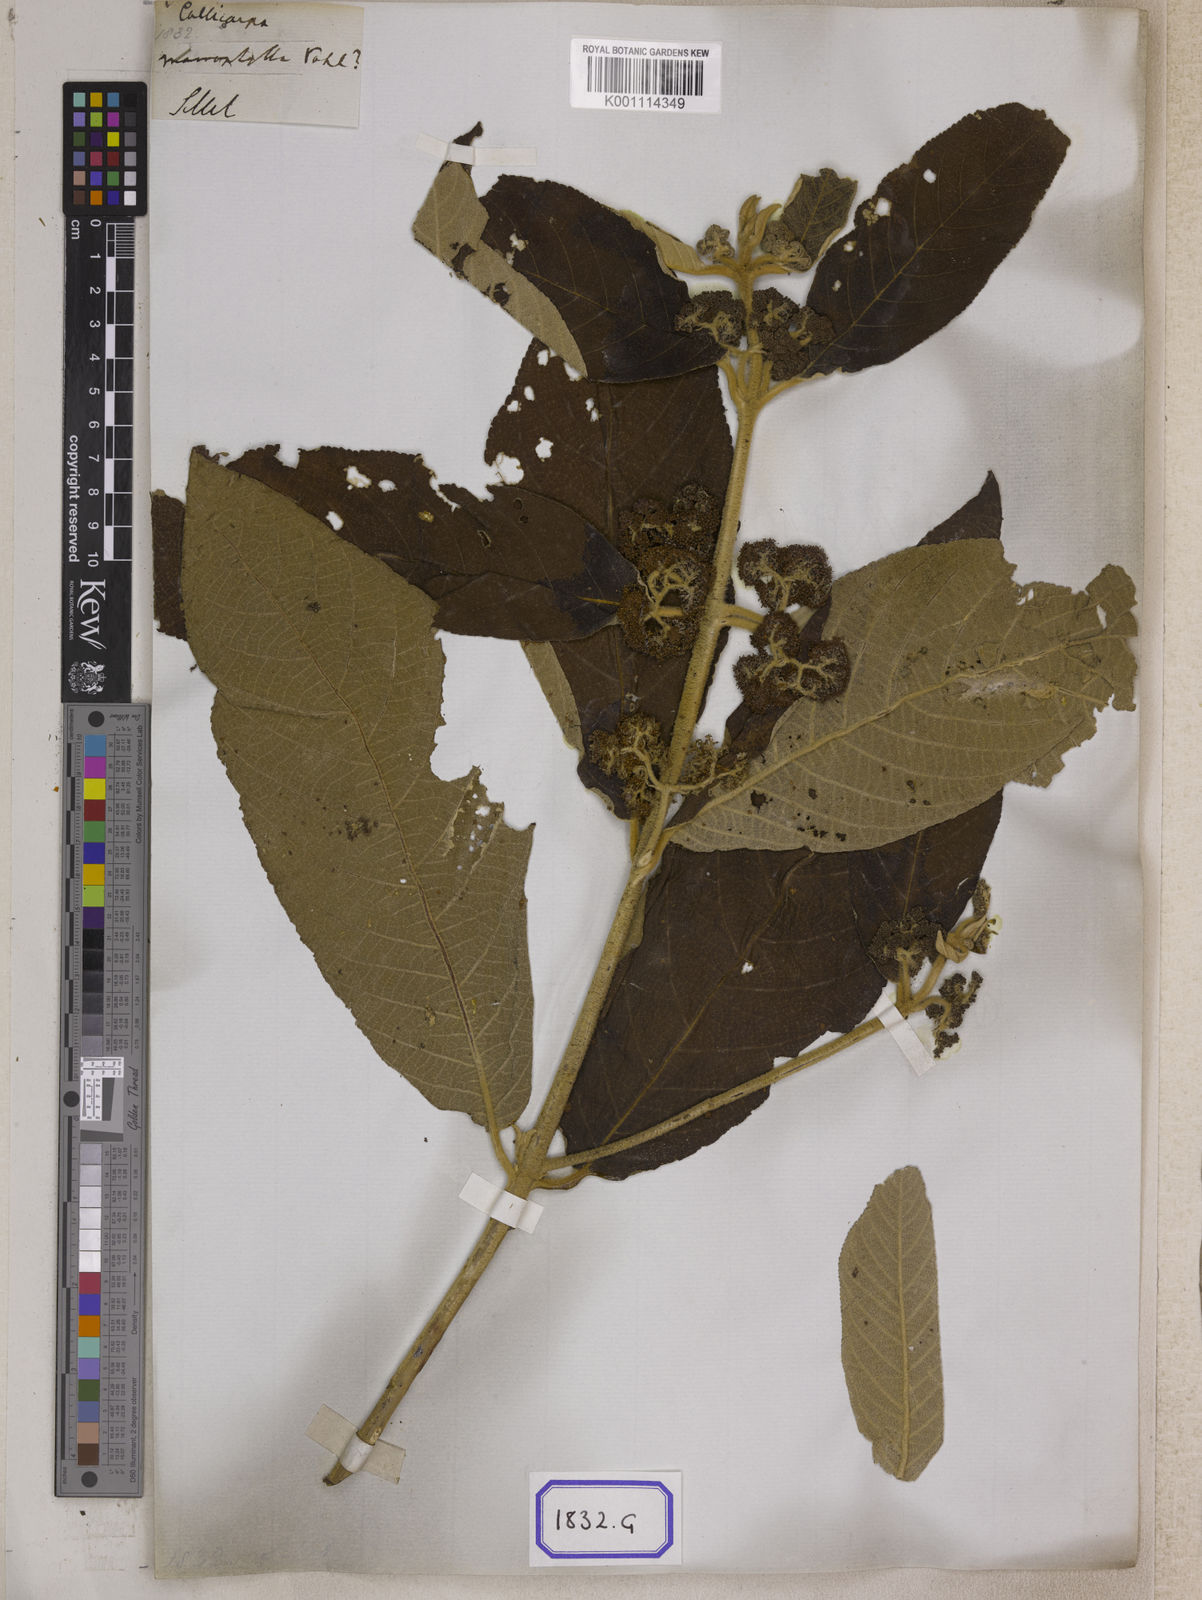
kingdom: Plantae
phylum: Tracheophyta
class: Magnoliopsida
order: Lamiales
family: Lamiaceae
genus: Callicarpa
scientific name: Callicarpa macrophylla
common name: Urn-fruit beauty-berry
